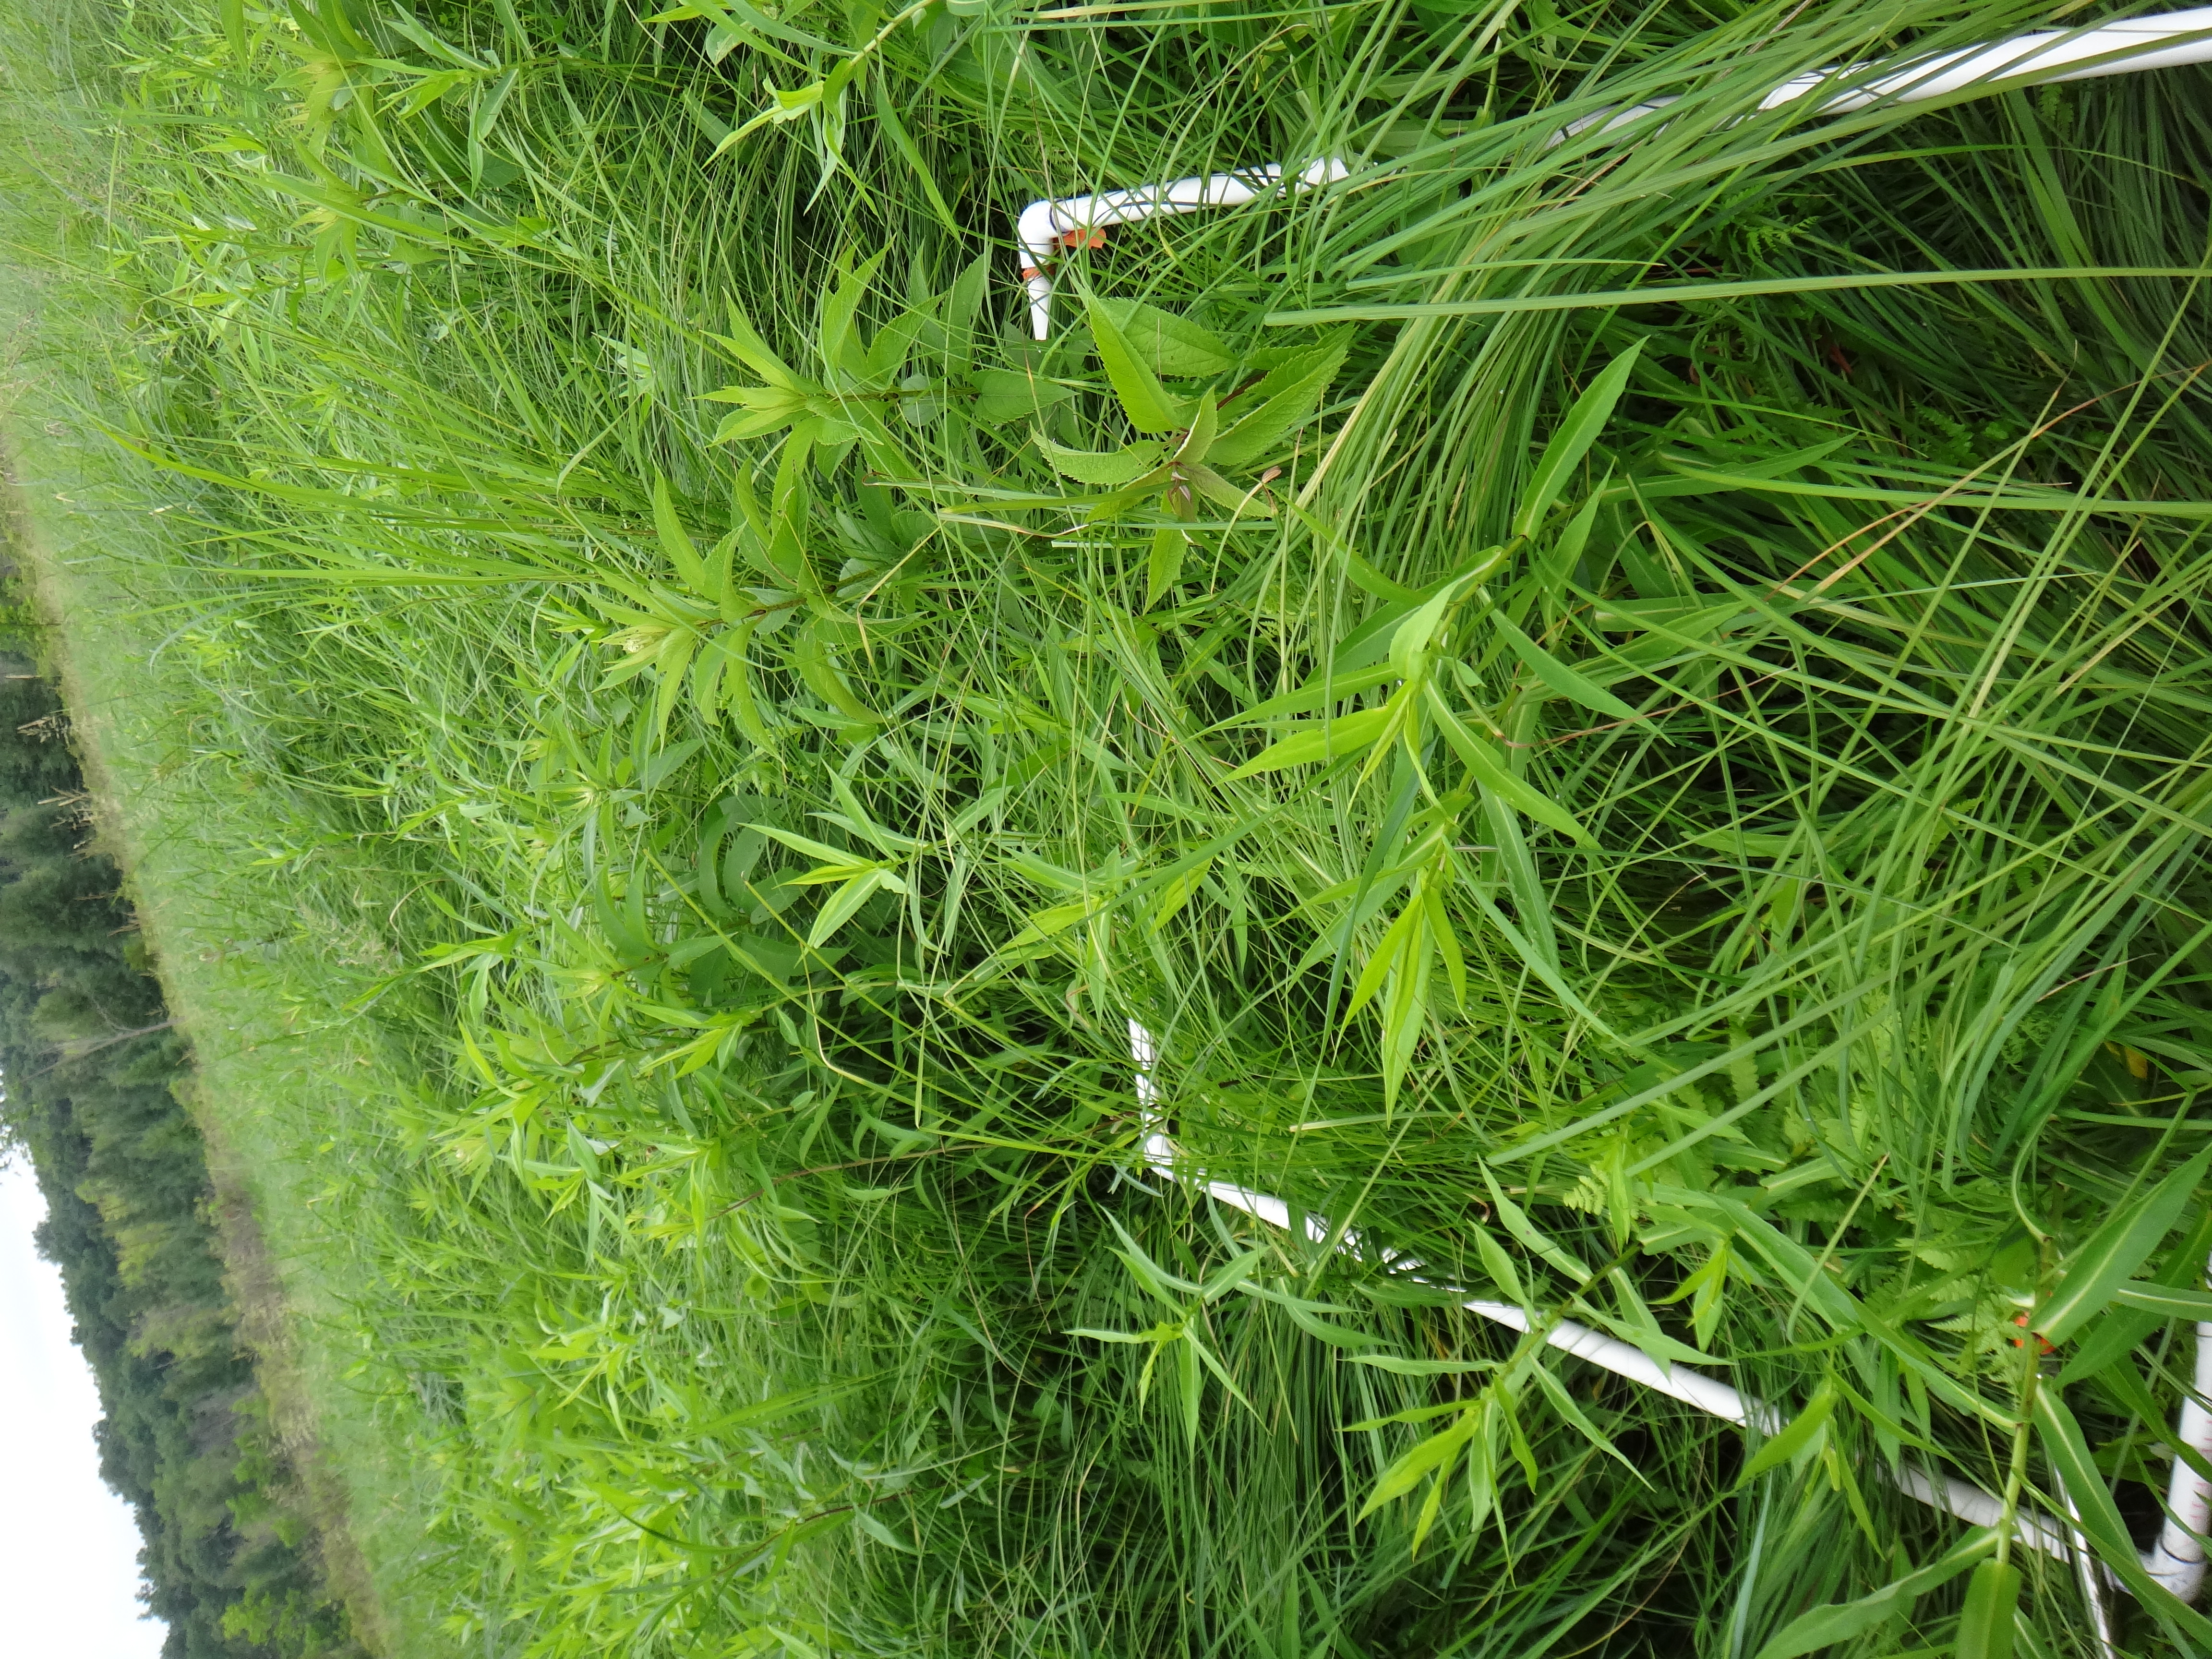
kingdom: Plantae
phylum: Tracheophyta
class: Magnoliopsida
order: Asterales
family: Asteraceae
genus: Symphyotrichum
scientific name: Symphyotrichum lanceolatum
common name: Panicled aster
